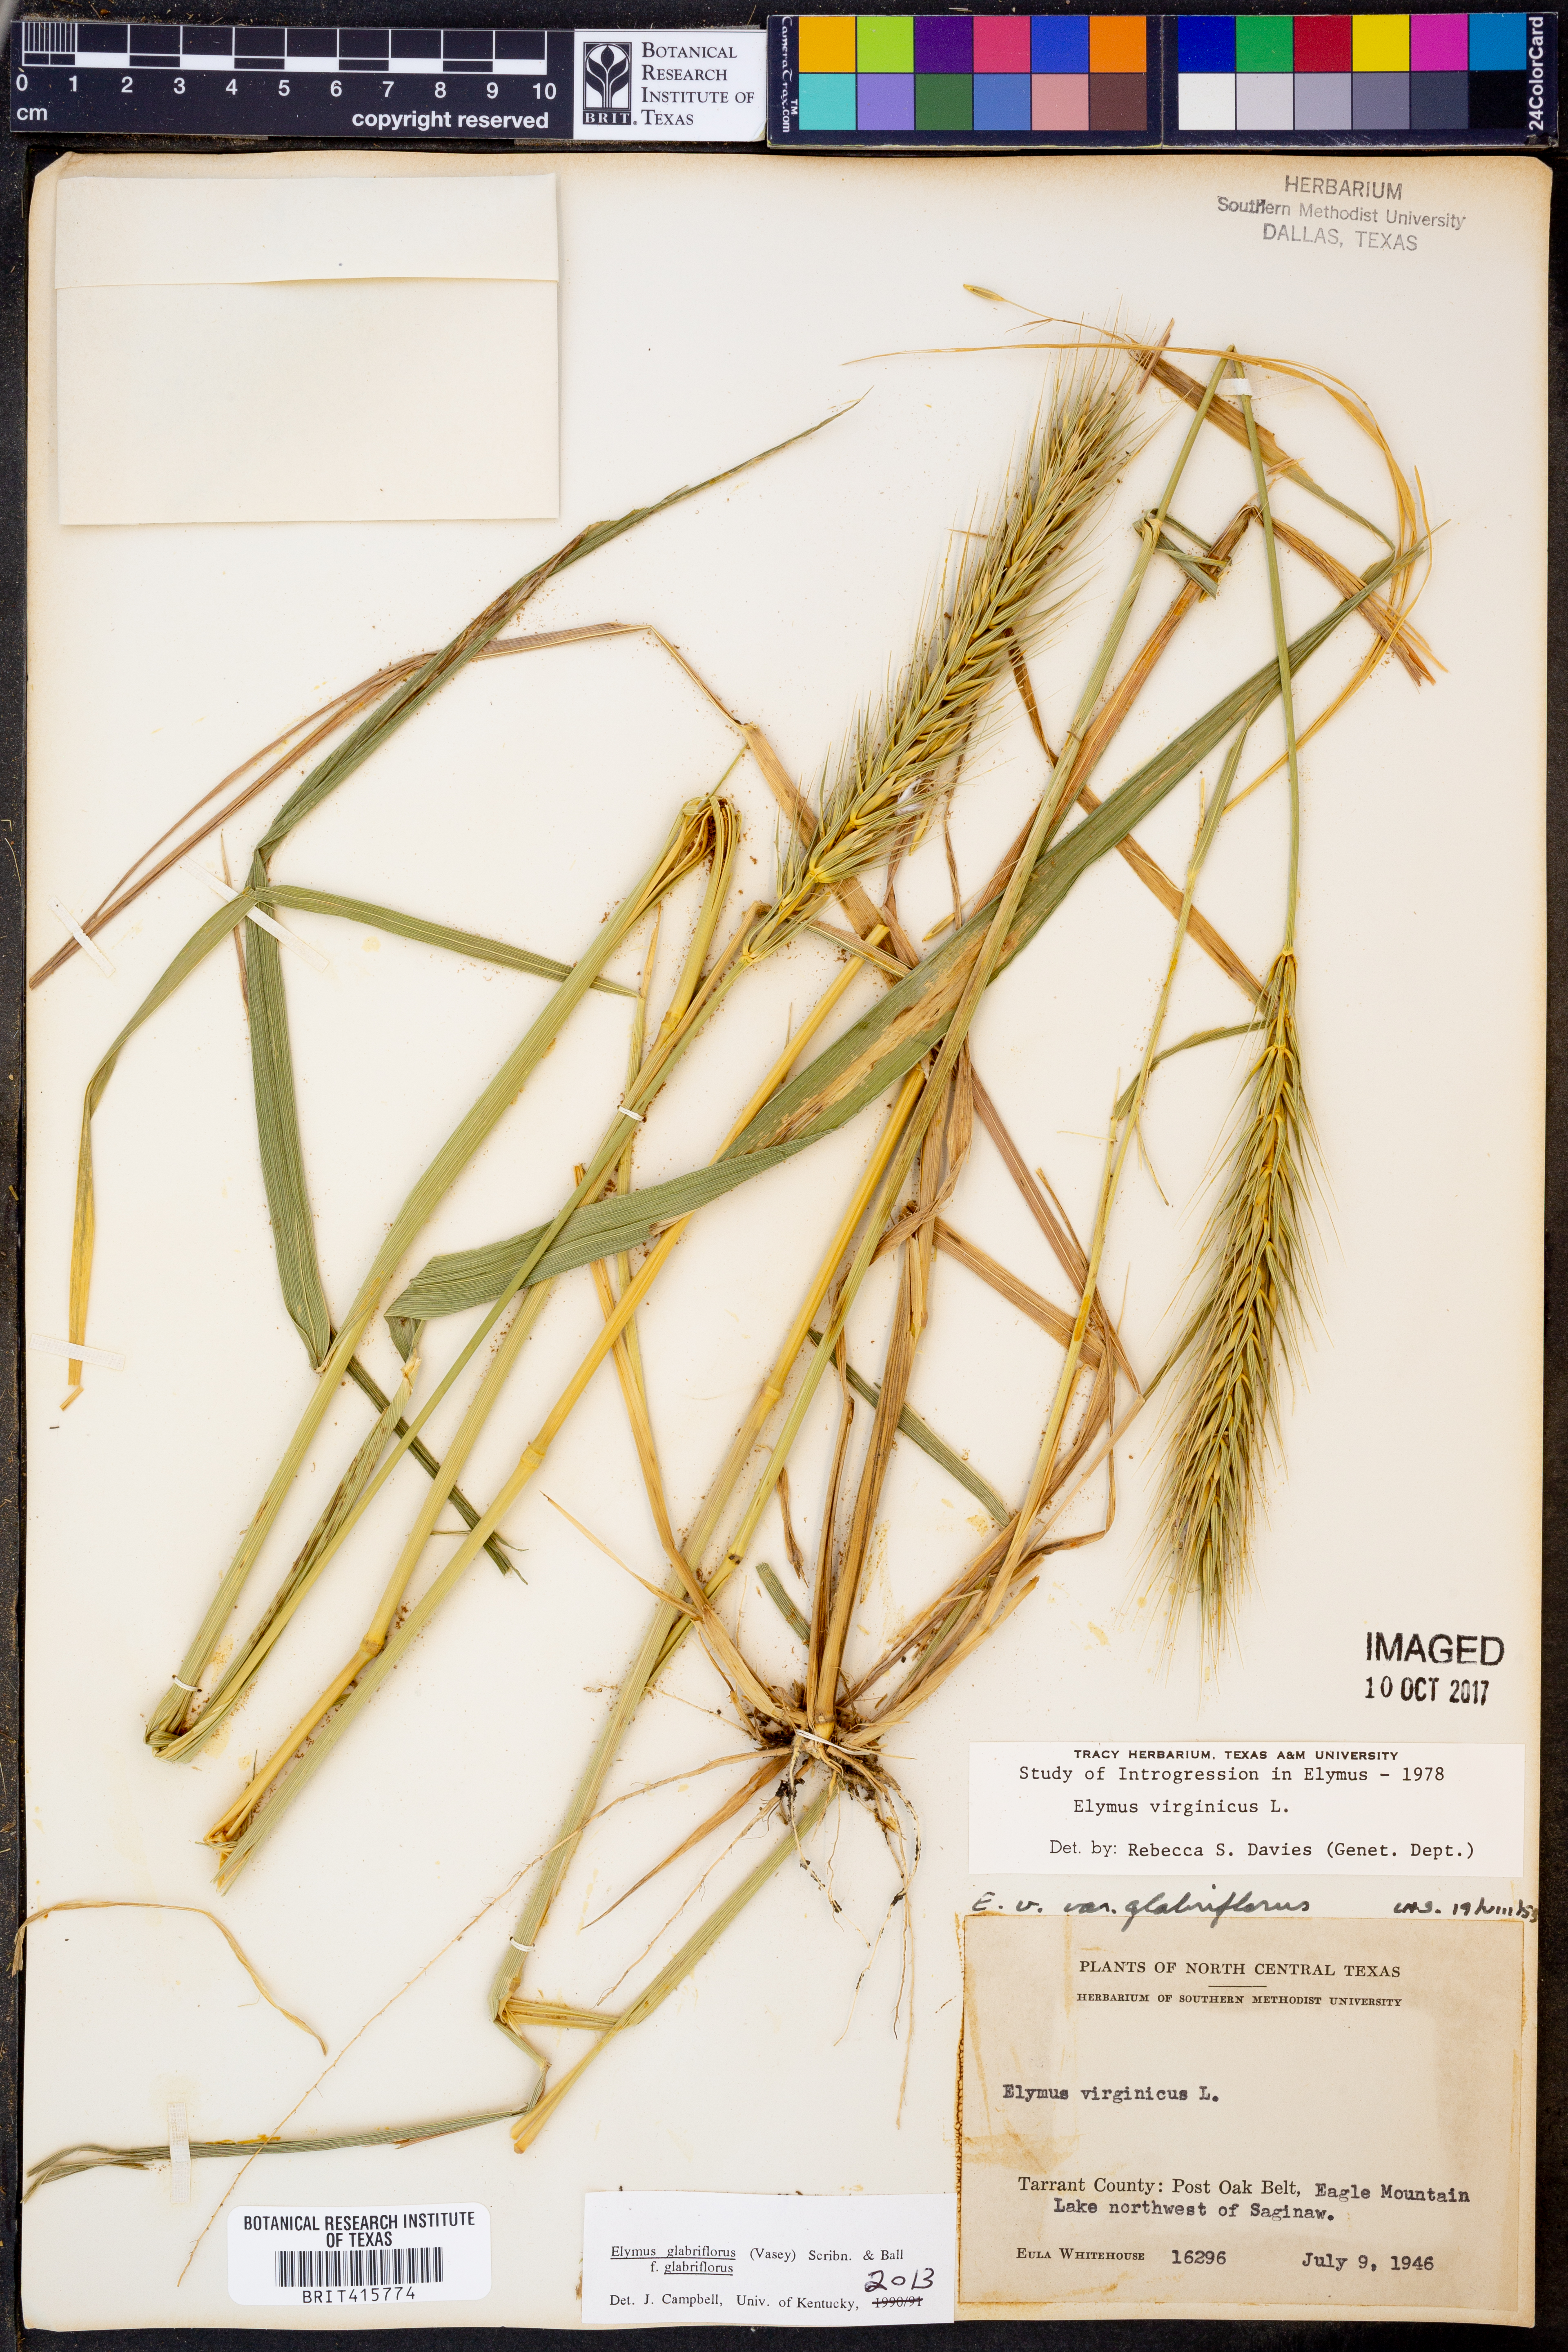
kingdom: Plantae
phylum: Tracheophyta
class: Liliopsida
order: Poales
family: Poaceae
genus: Elymus
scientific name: Elymus virginicus
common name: Common eastern wildrye
